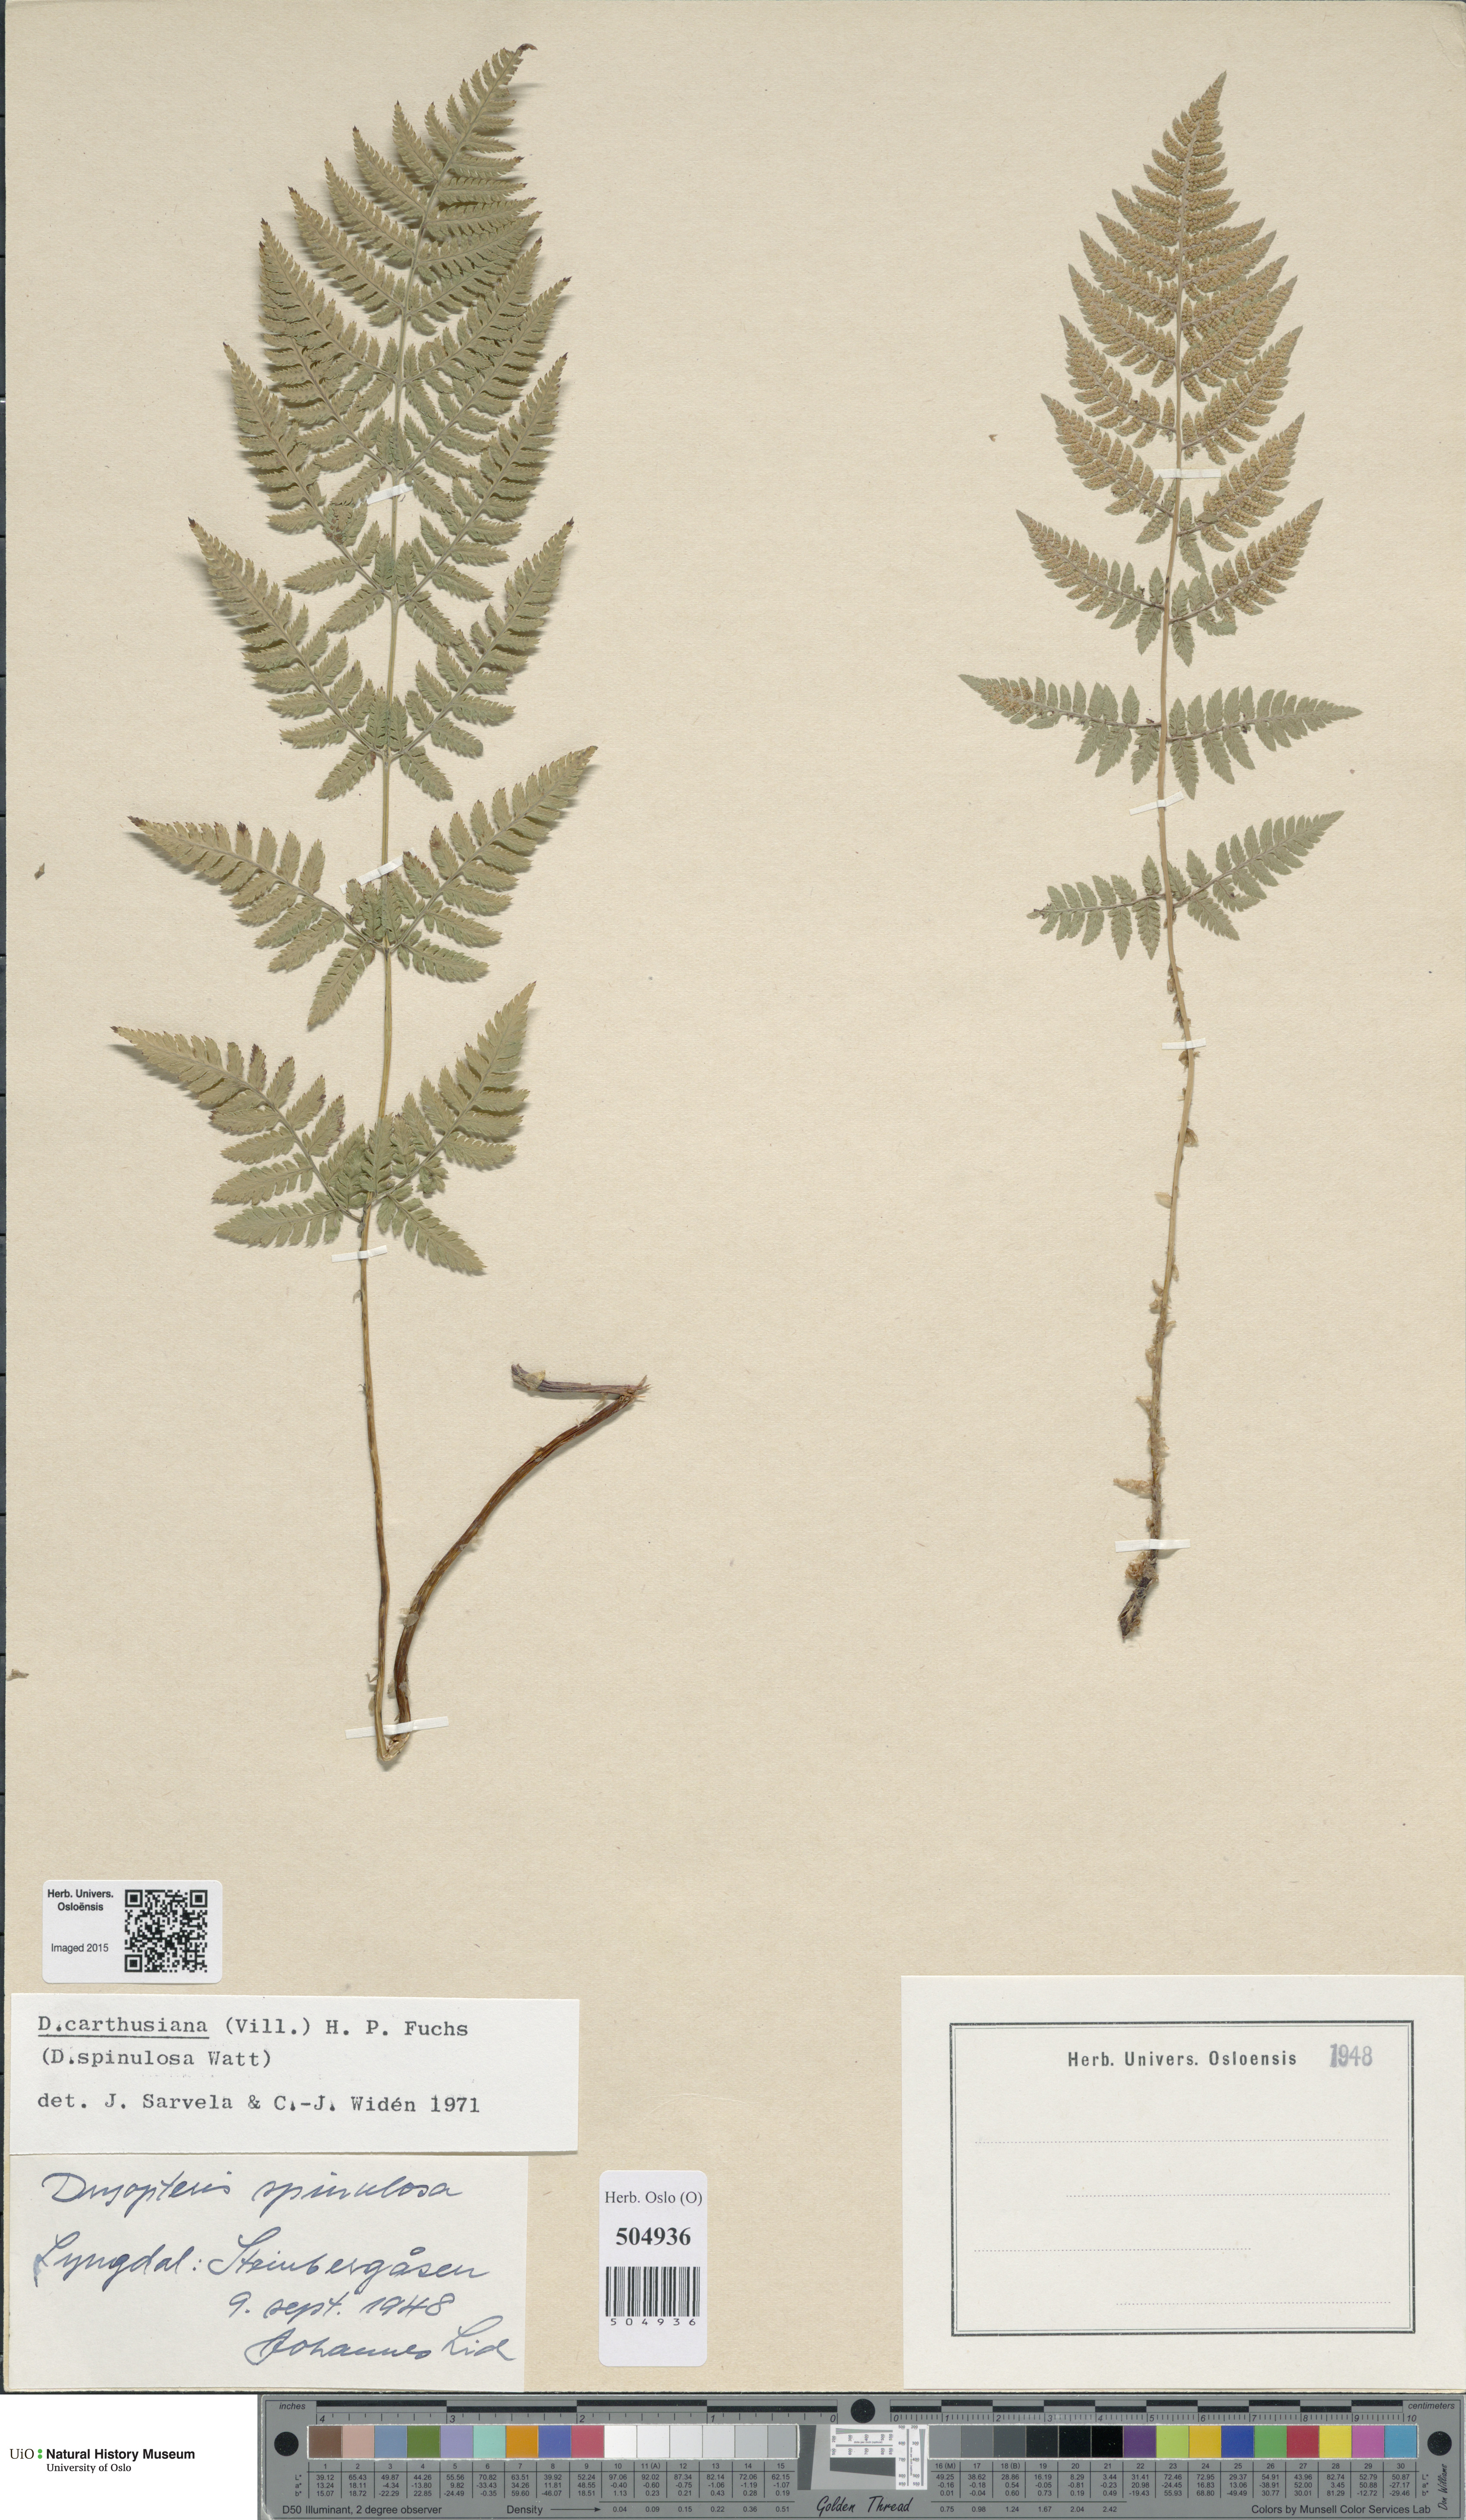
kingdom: Plantae
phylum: Tracheophyta
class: Polypodiopsida
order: Polypodiales
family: Dryopteridaceae
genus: Dryopteris
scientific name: Dryopteris carthusiana
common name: Narrow buckler-fern
